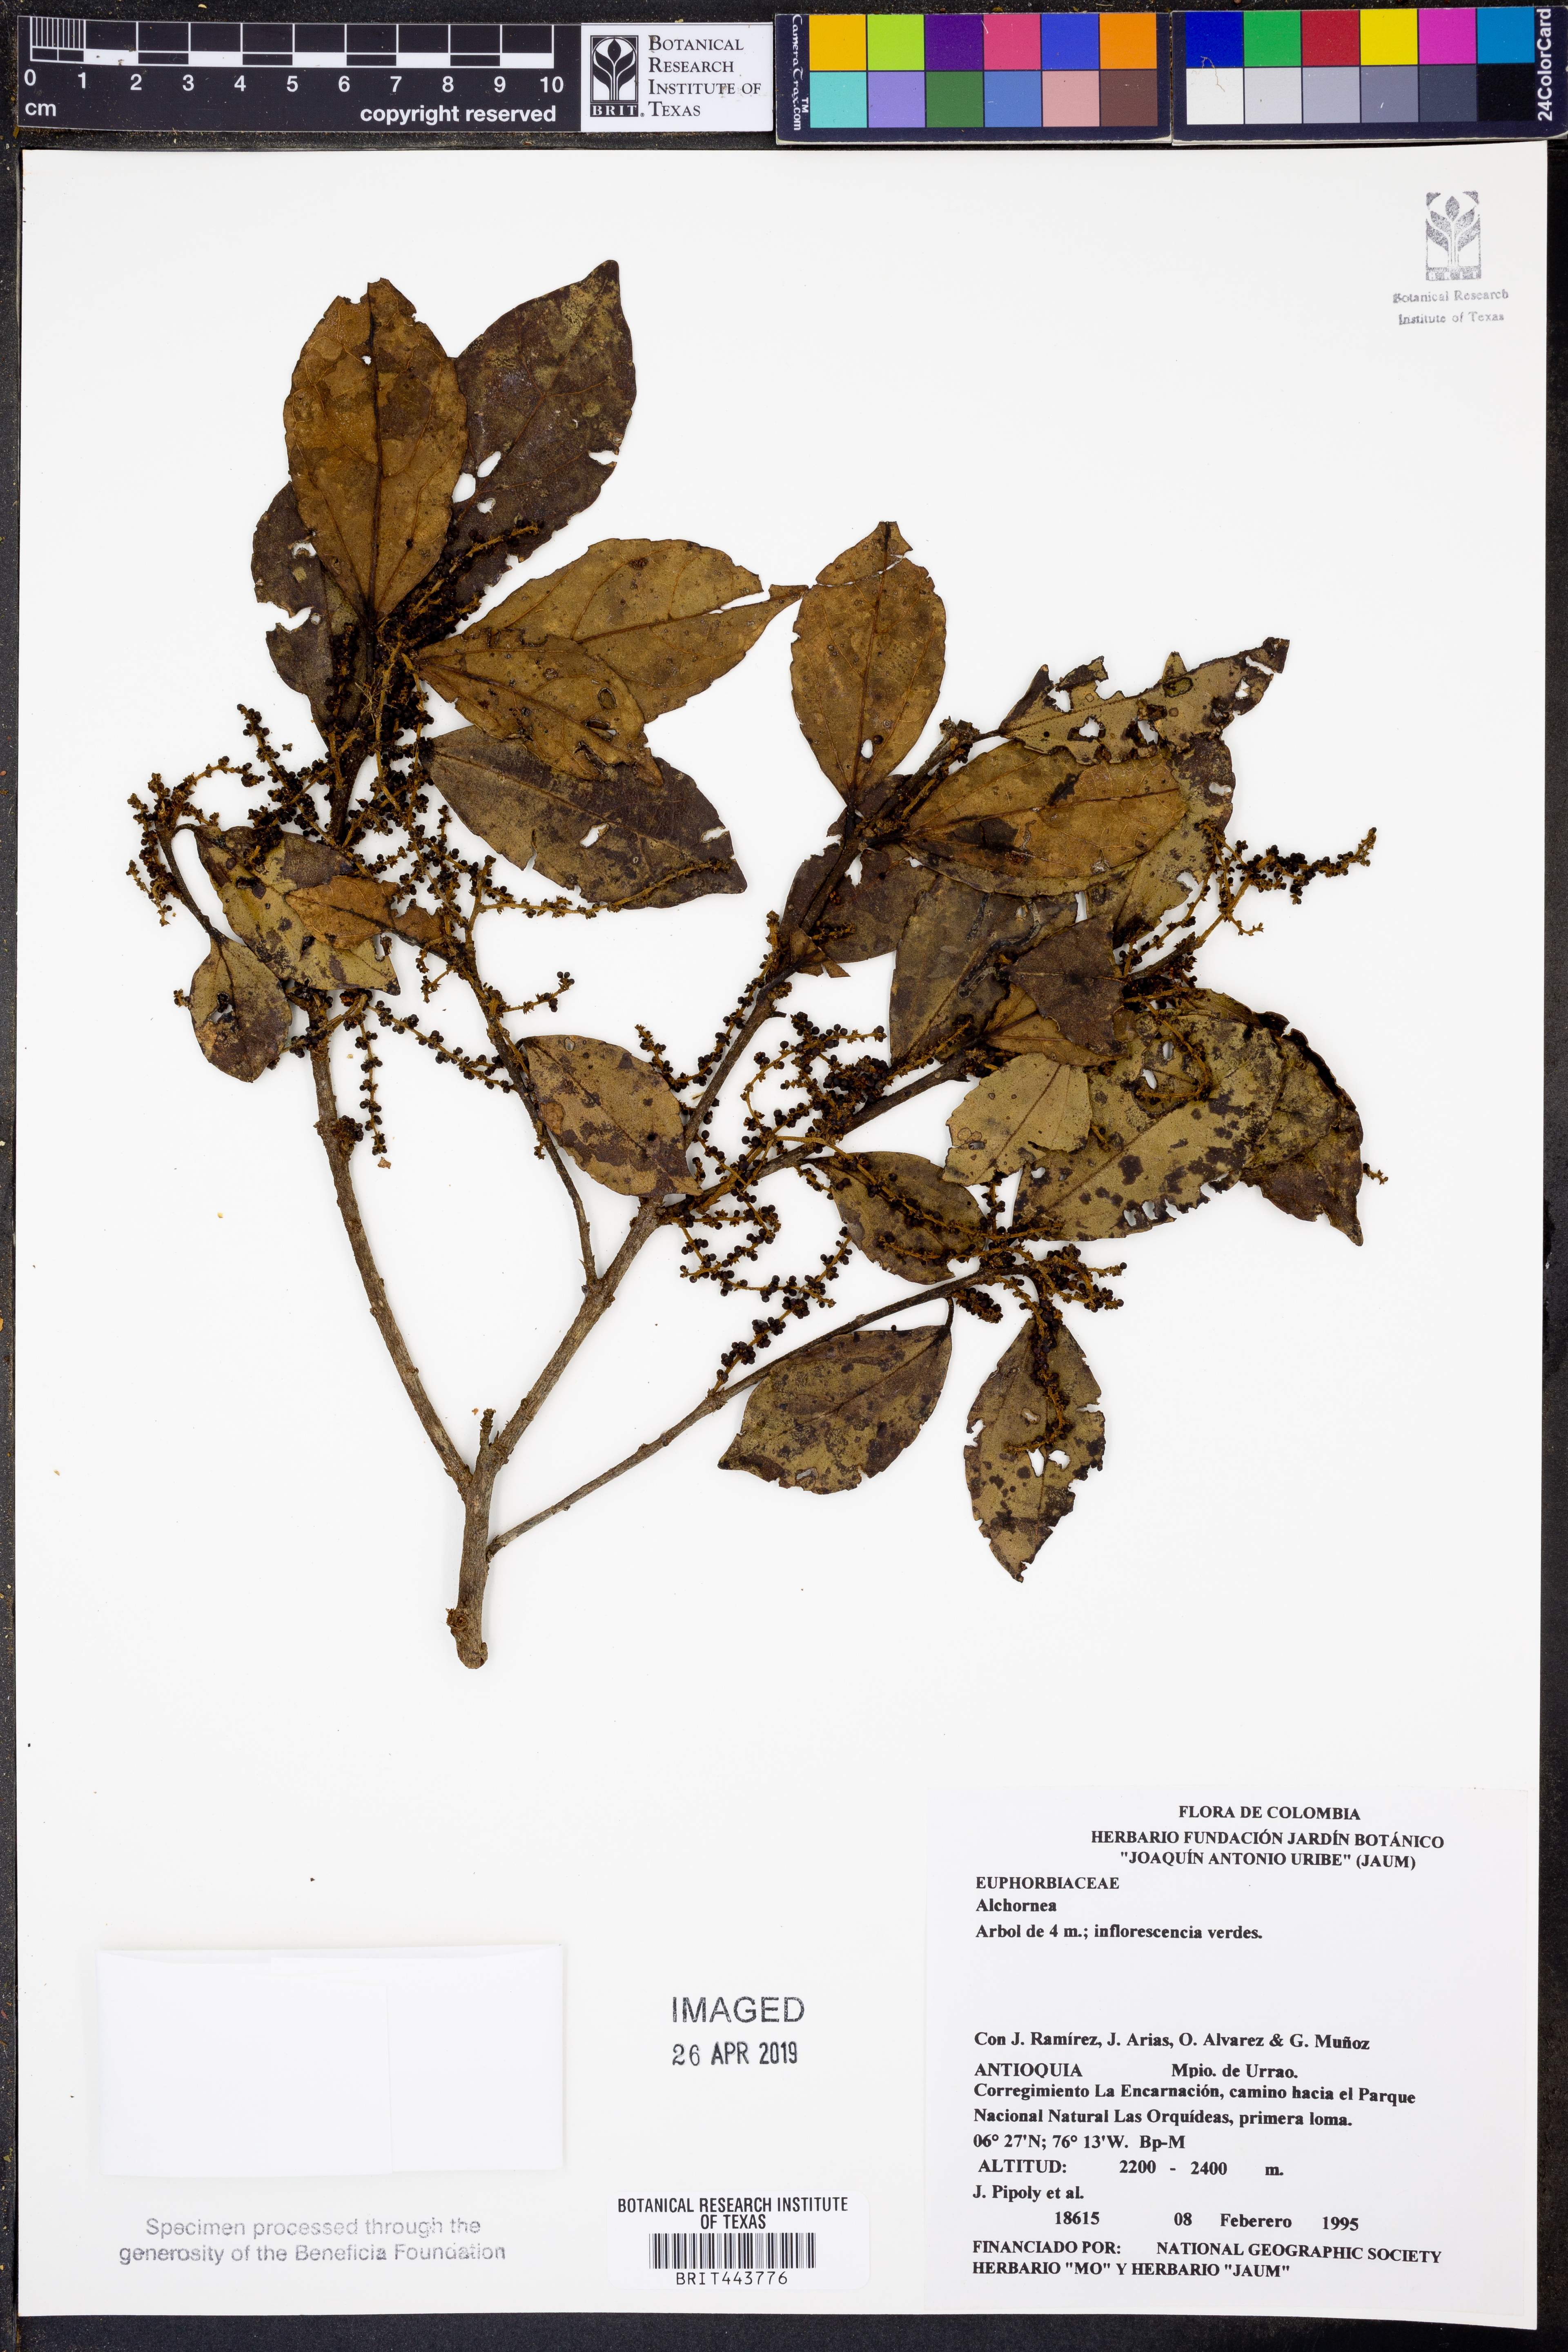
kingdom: Plantae
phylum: Tracheophyta
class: Magnoliopsida
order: Malpighiales
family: Euphorbiaceae
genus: Alchornea
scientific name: Alchornea
